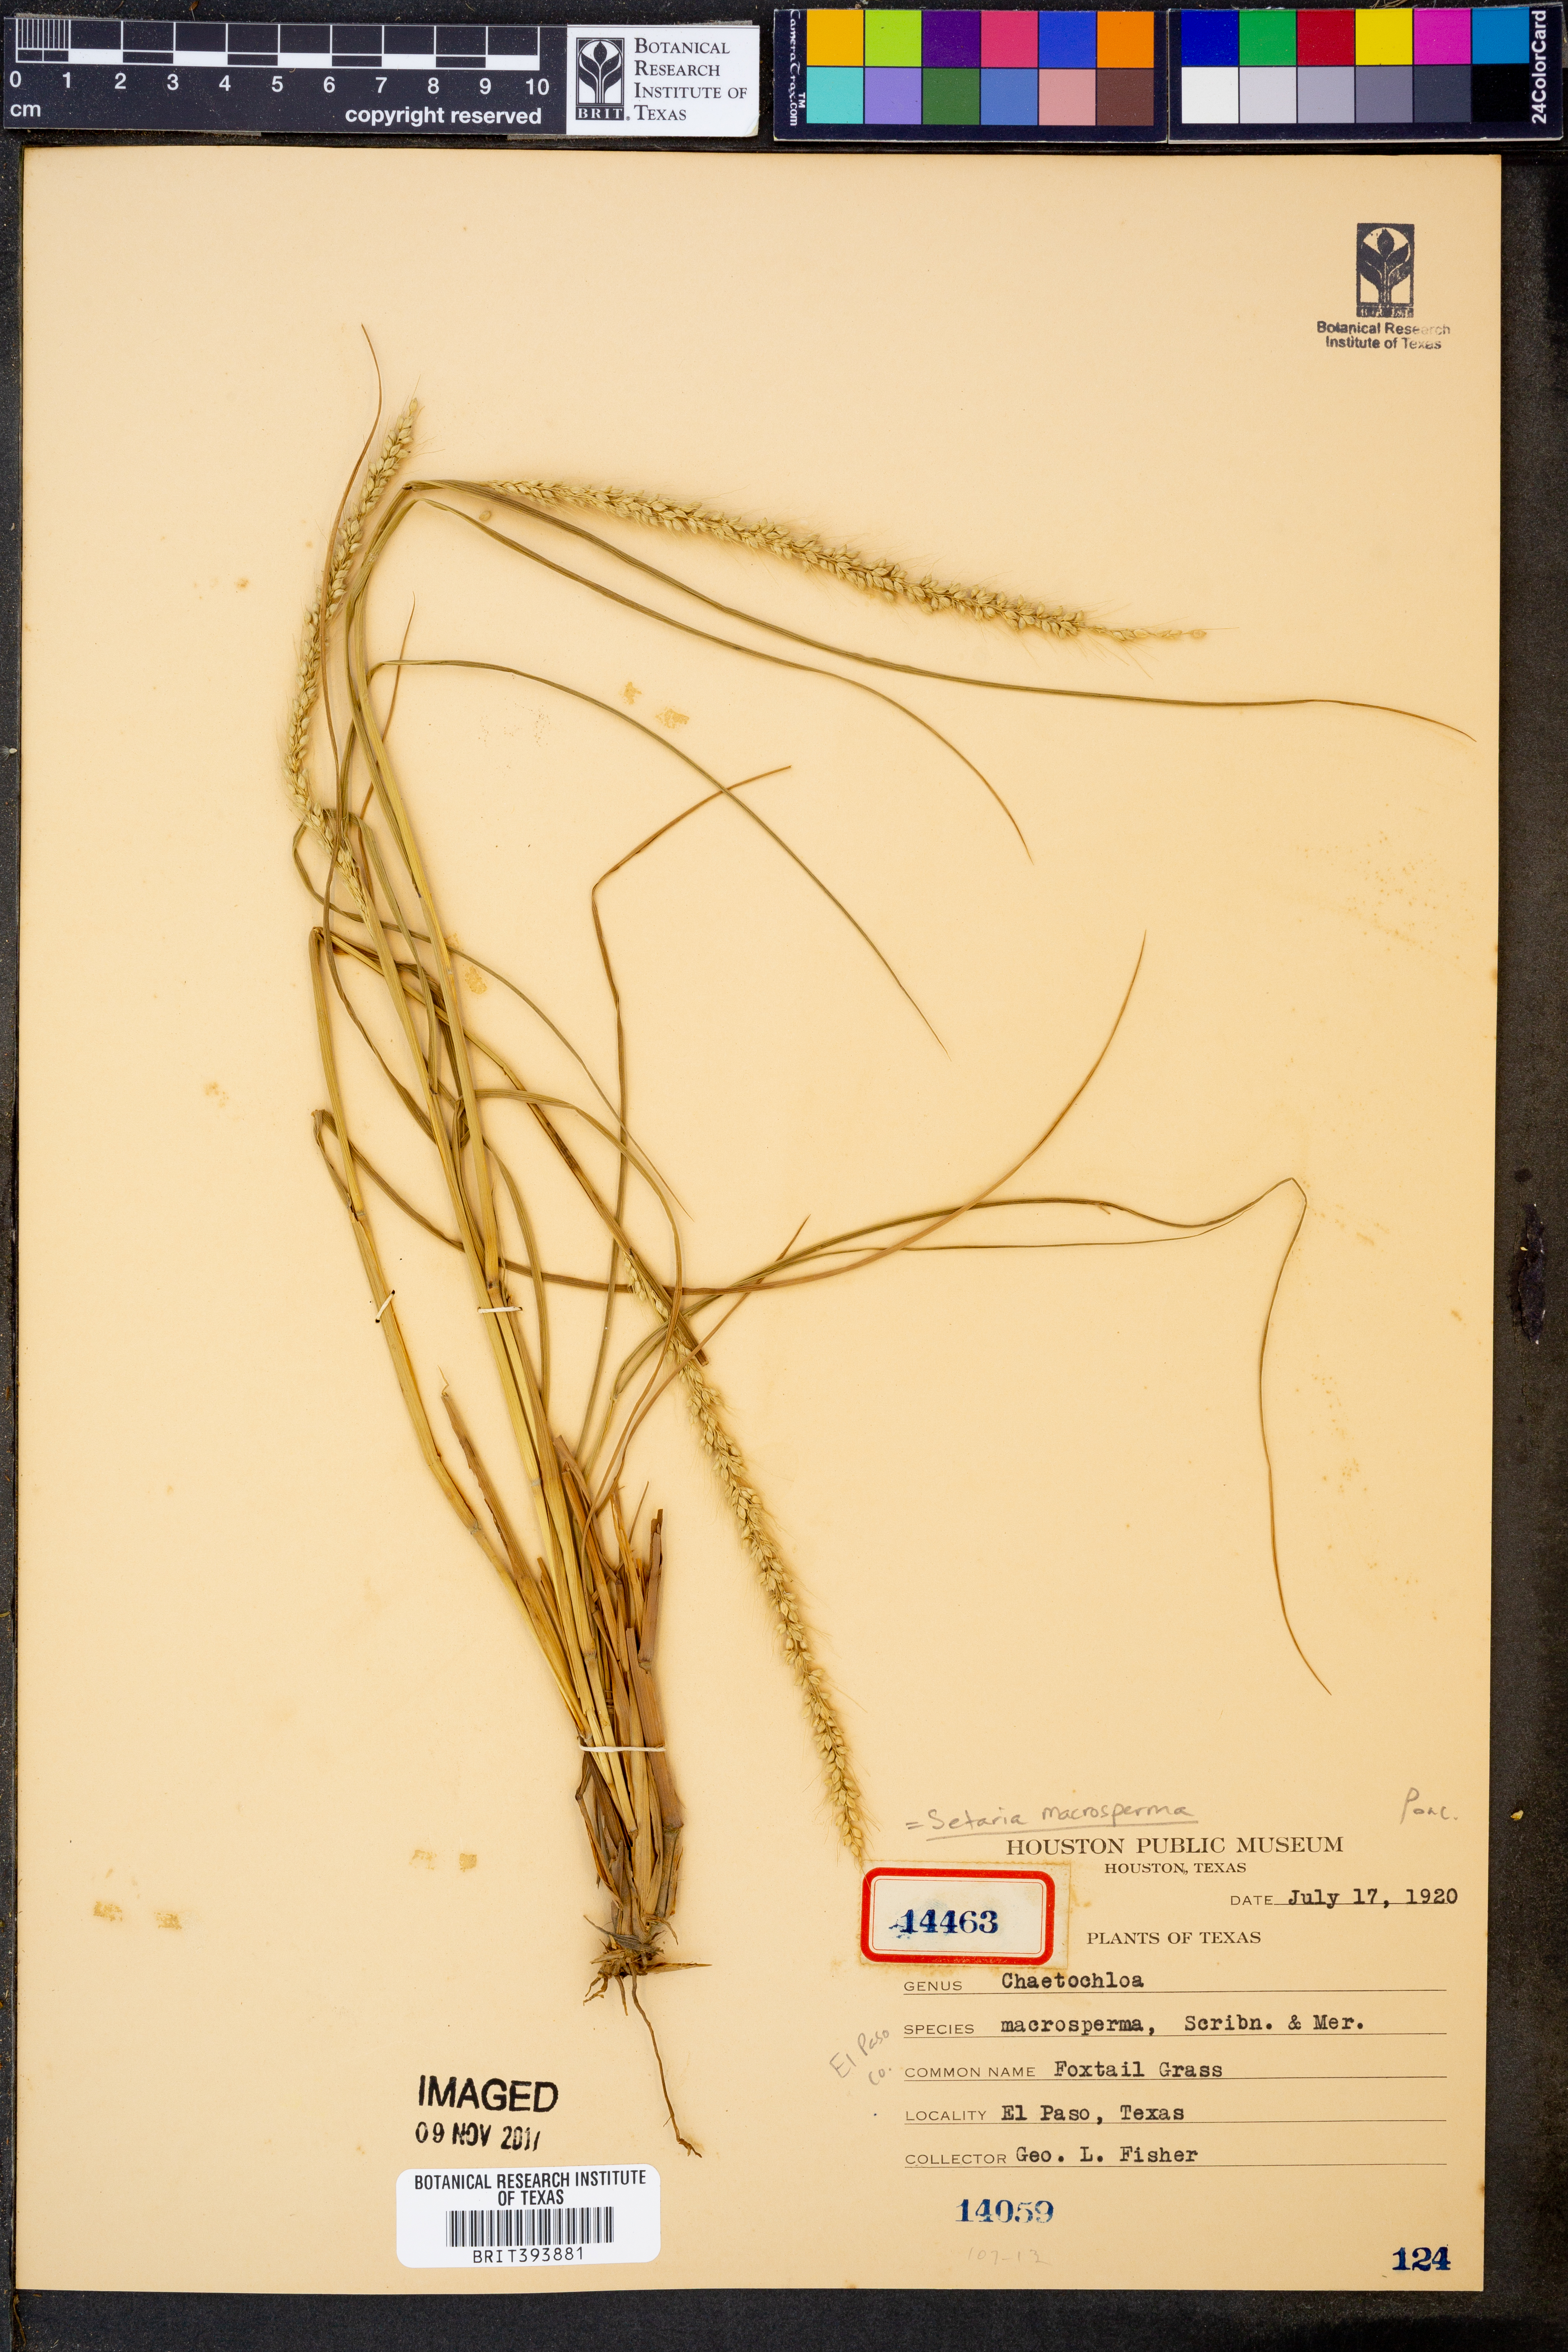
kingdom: Plantae
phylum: Tracheophyta
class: Liliopsida
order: Poales
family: Poaceae
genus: Setaria
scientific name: Setaria macrosperma
